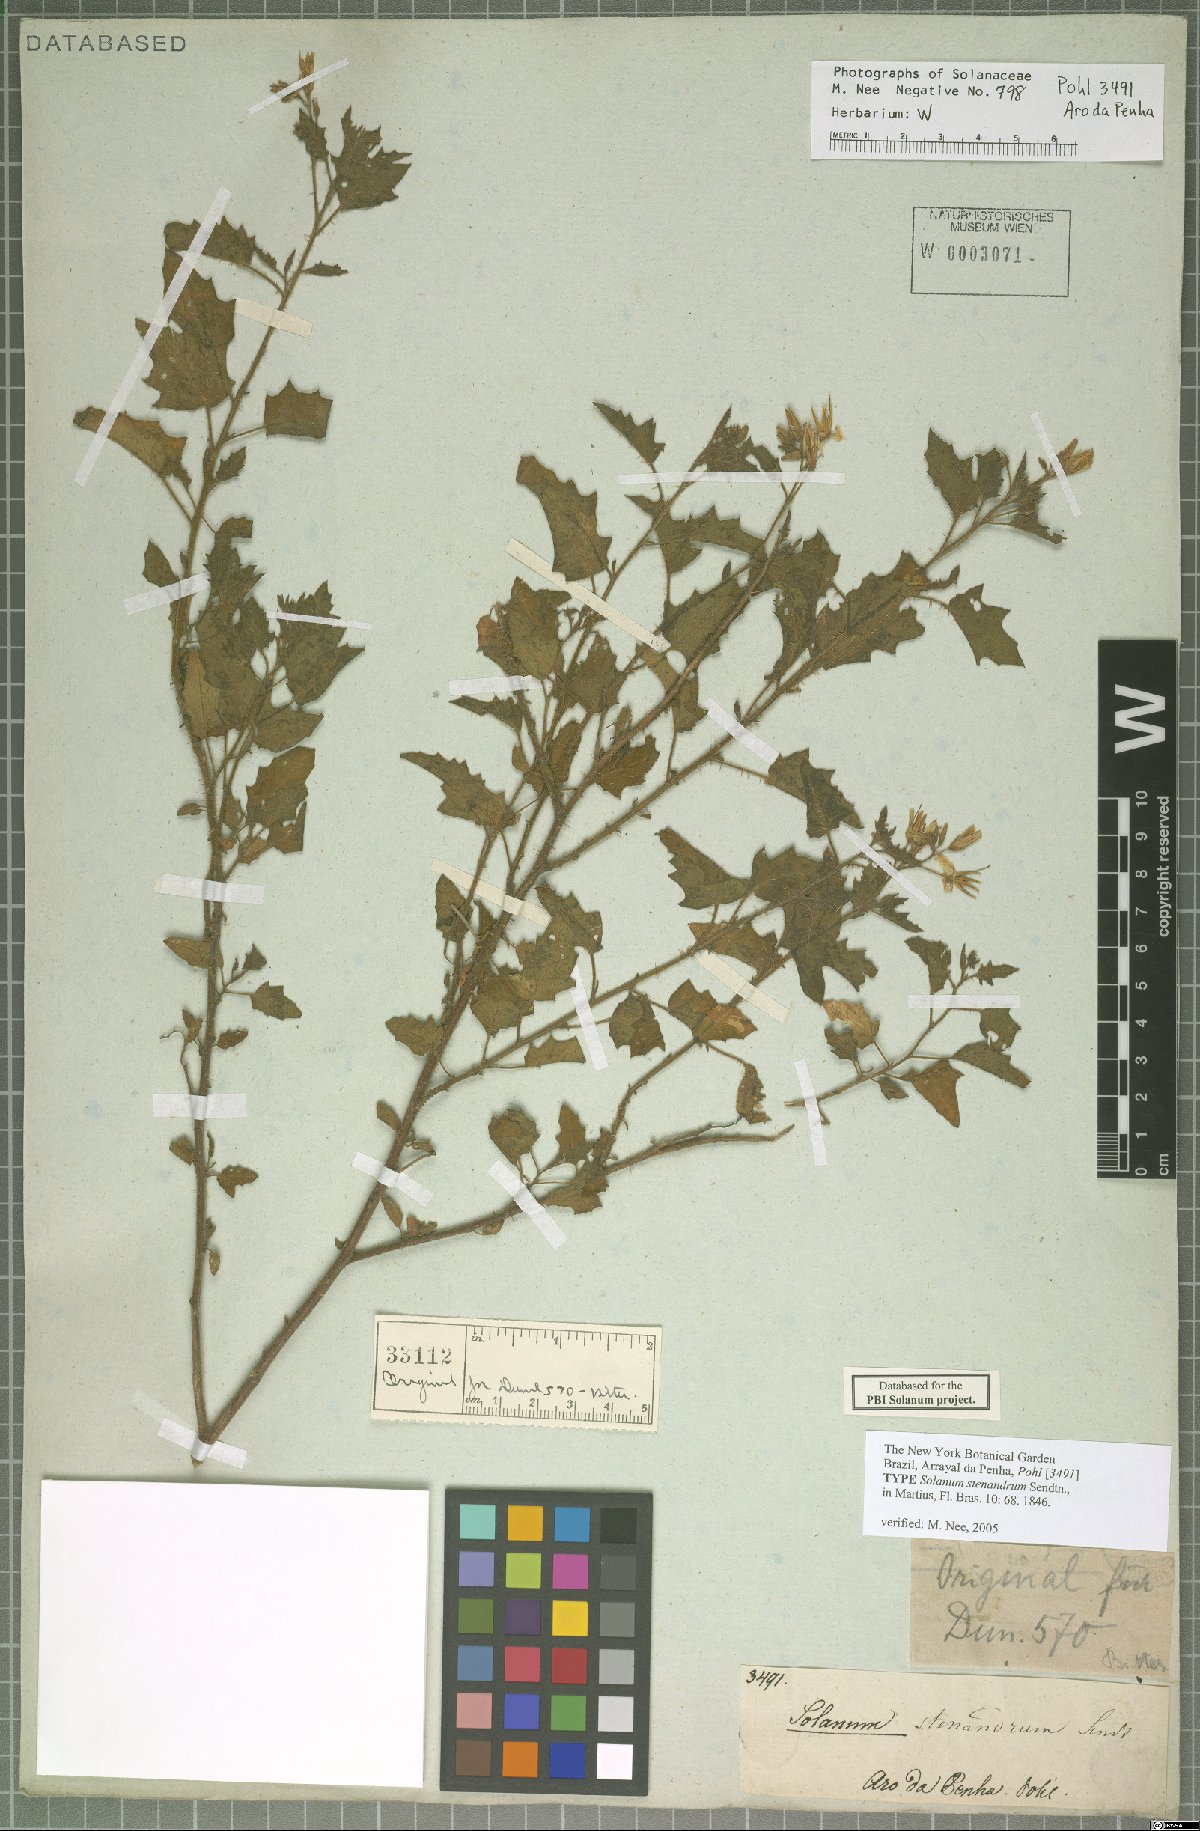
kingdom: Plantae
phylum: Tracheophyta
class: Magnoliopsida
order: Solanales
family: Solanaceae
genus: Solanum
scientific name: Solanum stenandrum
